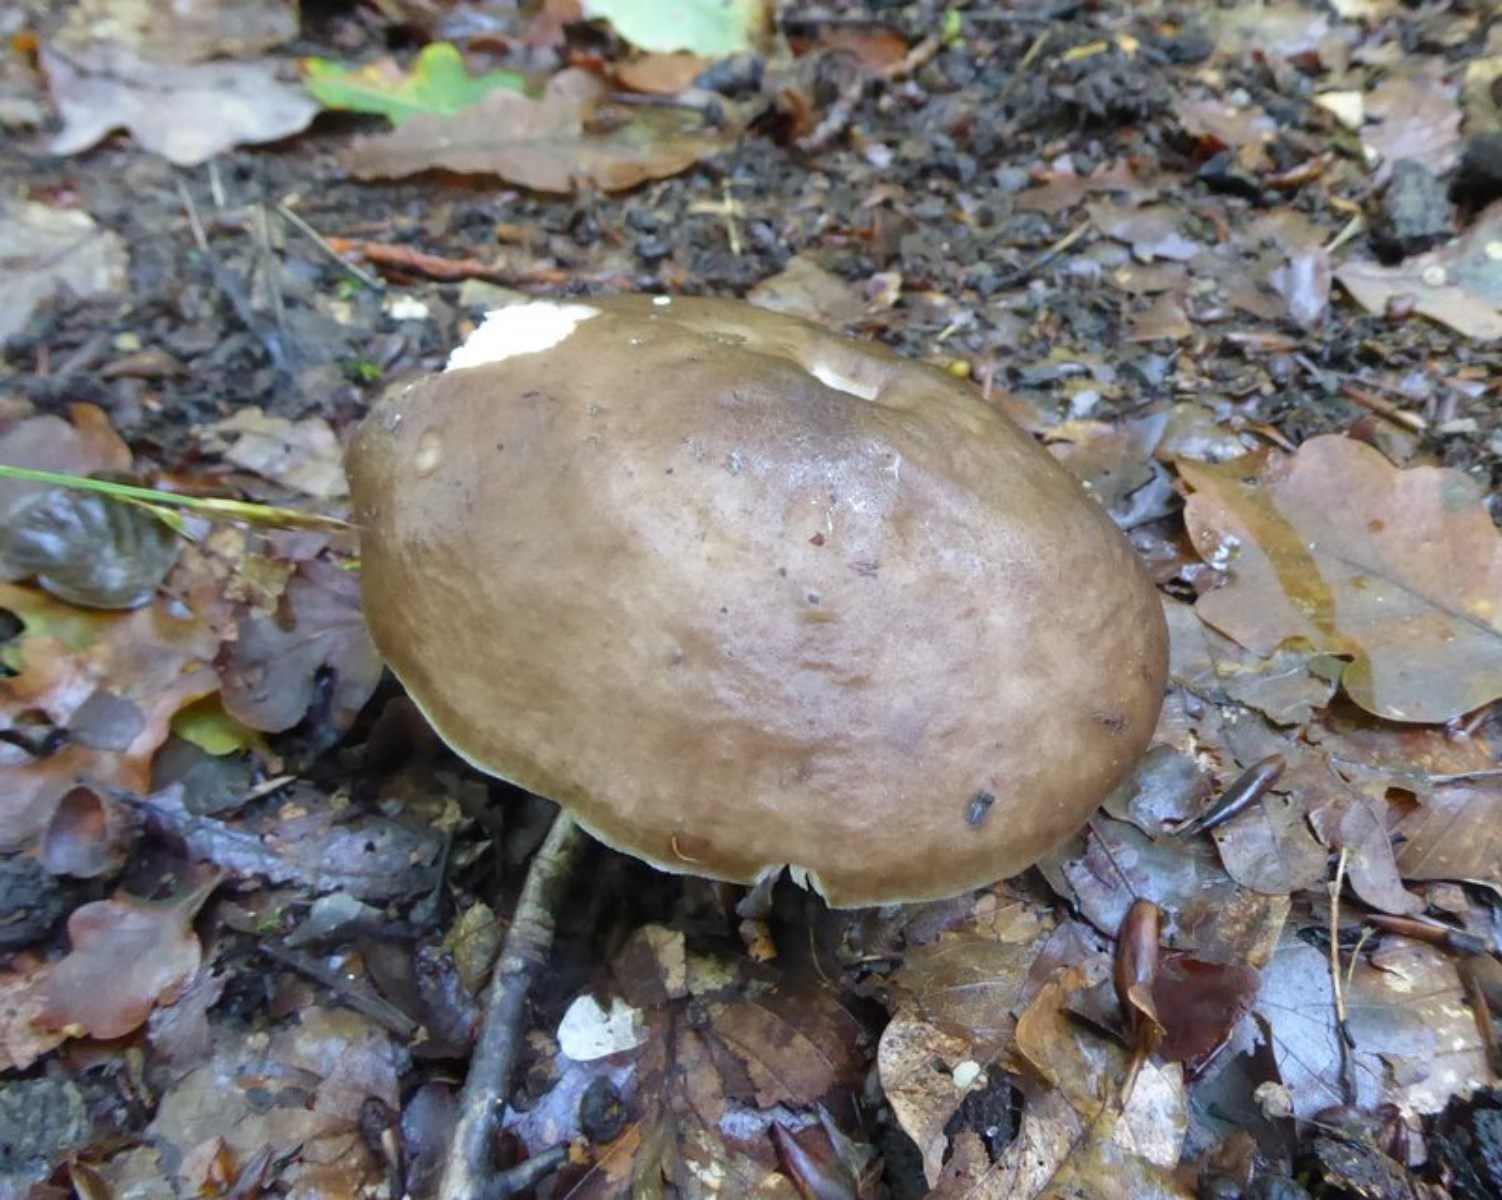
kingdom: Fungi
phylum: Basidiomycota
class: Agaricomycetes
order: Agaricales
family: Pluteaceae
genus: Pluteus
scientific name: Pluteus cervinus
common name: sodfarvet skærmhat
